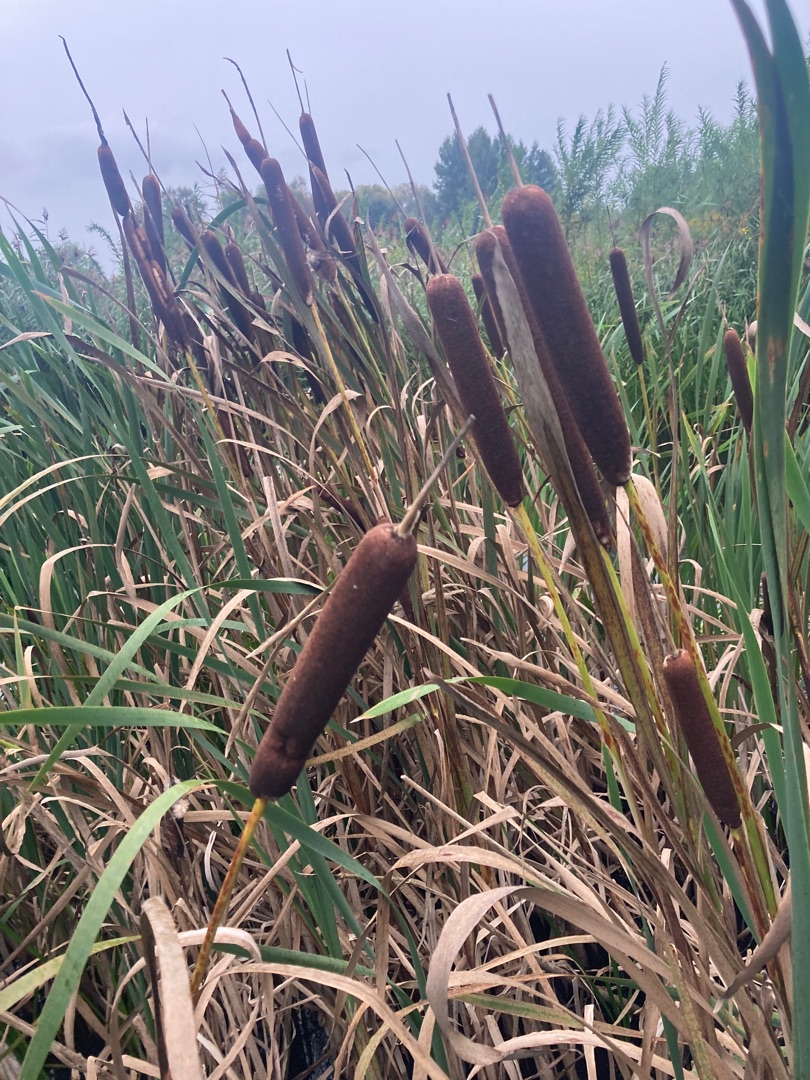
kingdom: Plantae
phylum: Tracheophyta
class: Liliopsida
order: Poales
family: Typhaceae
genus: Typha
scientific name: Typha latifolia
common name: Bredbladet dunhammer
